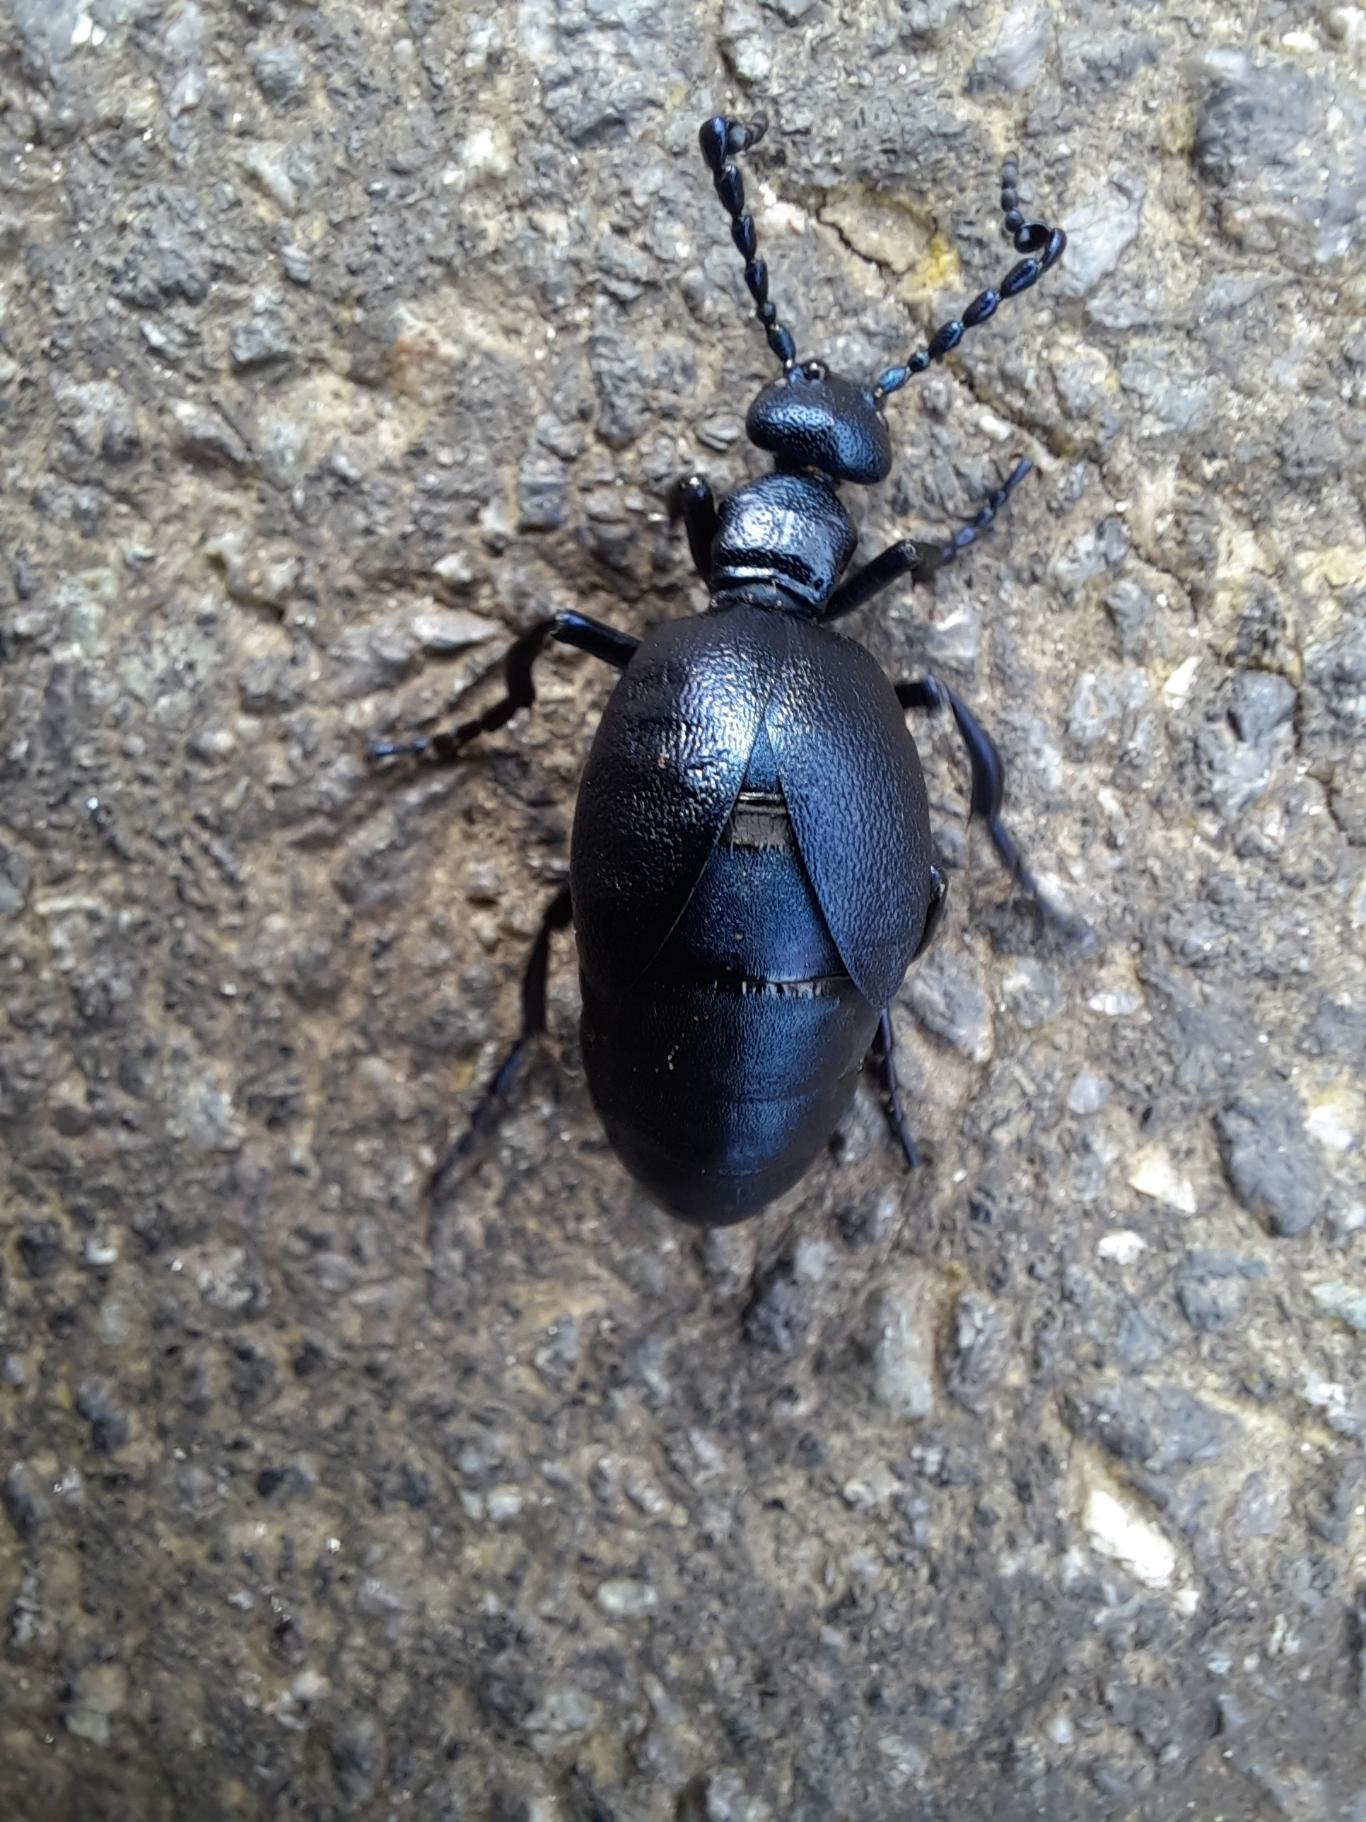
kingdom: Animalia
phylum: Arthropoda
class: Insecta
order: Coleoptera
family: Meloidae
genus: Meloe
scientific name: Meloe violaceus
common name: Blå oliebille
